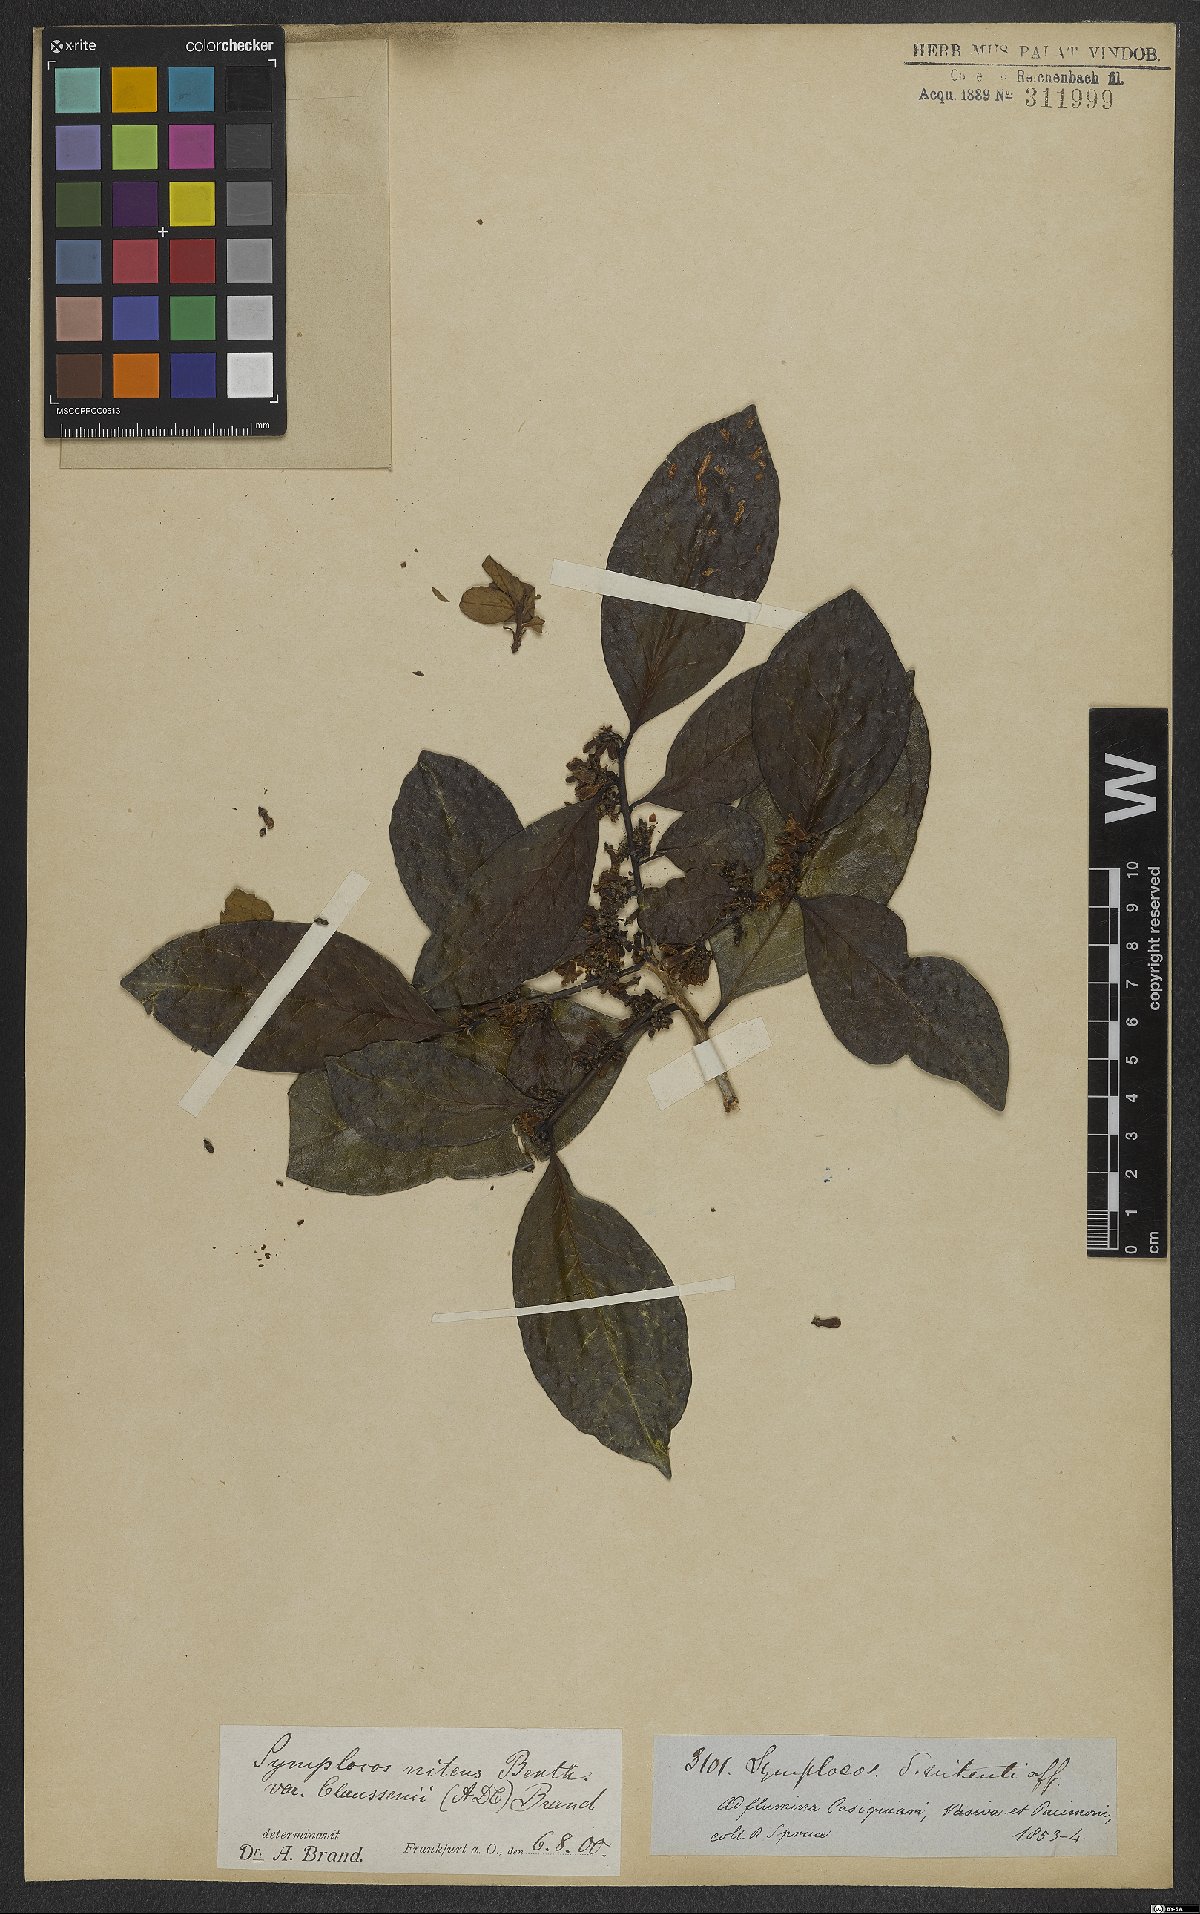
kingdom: Plantae
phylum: Tracheophyta
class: Magnoliopsida
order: Ericales
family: Symplocaceae
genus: Symplocos
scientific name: Symplocos nitens
